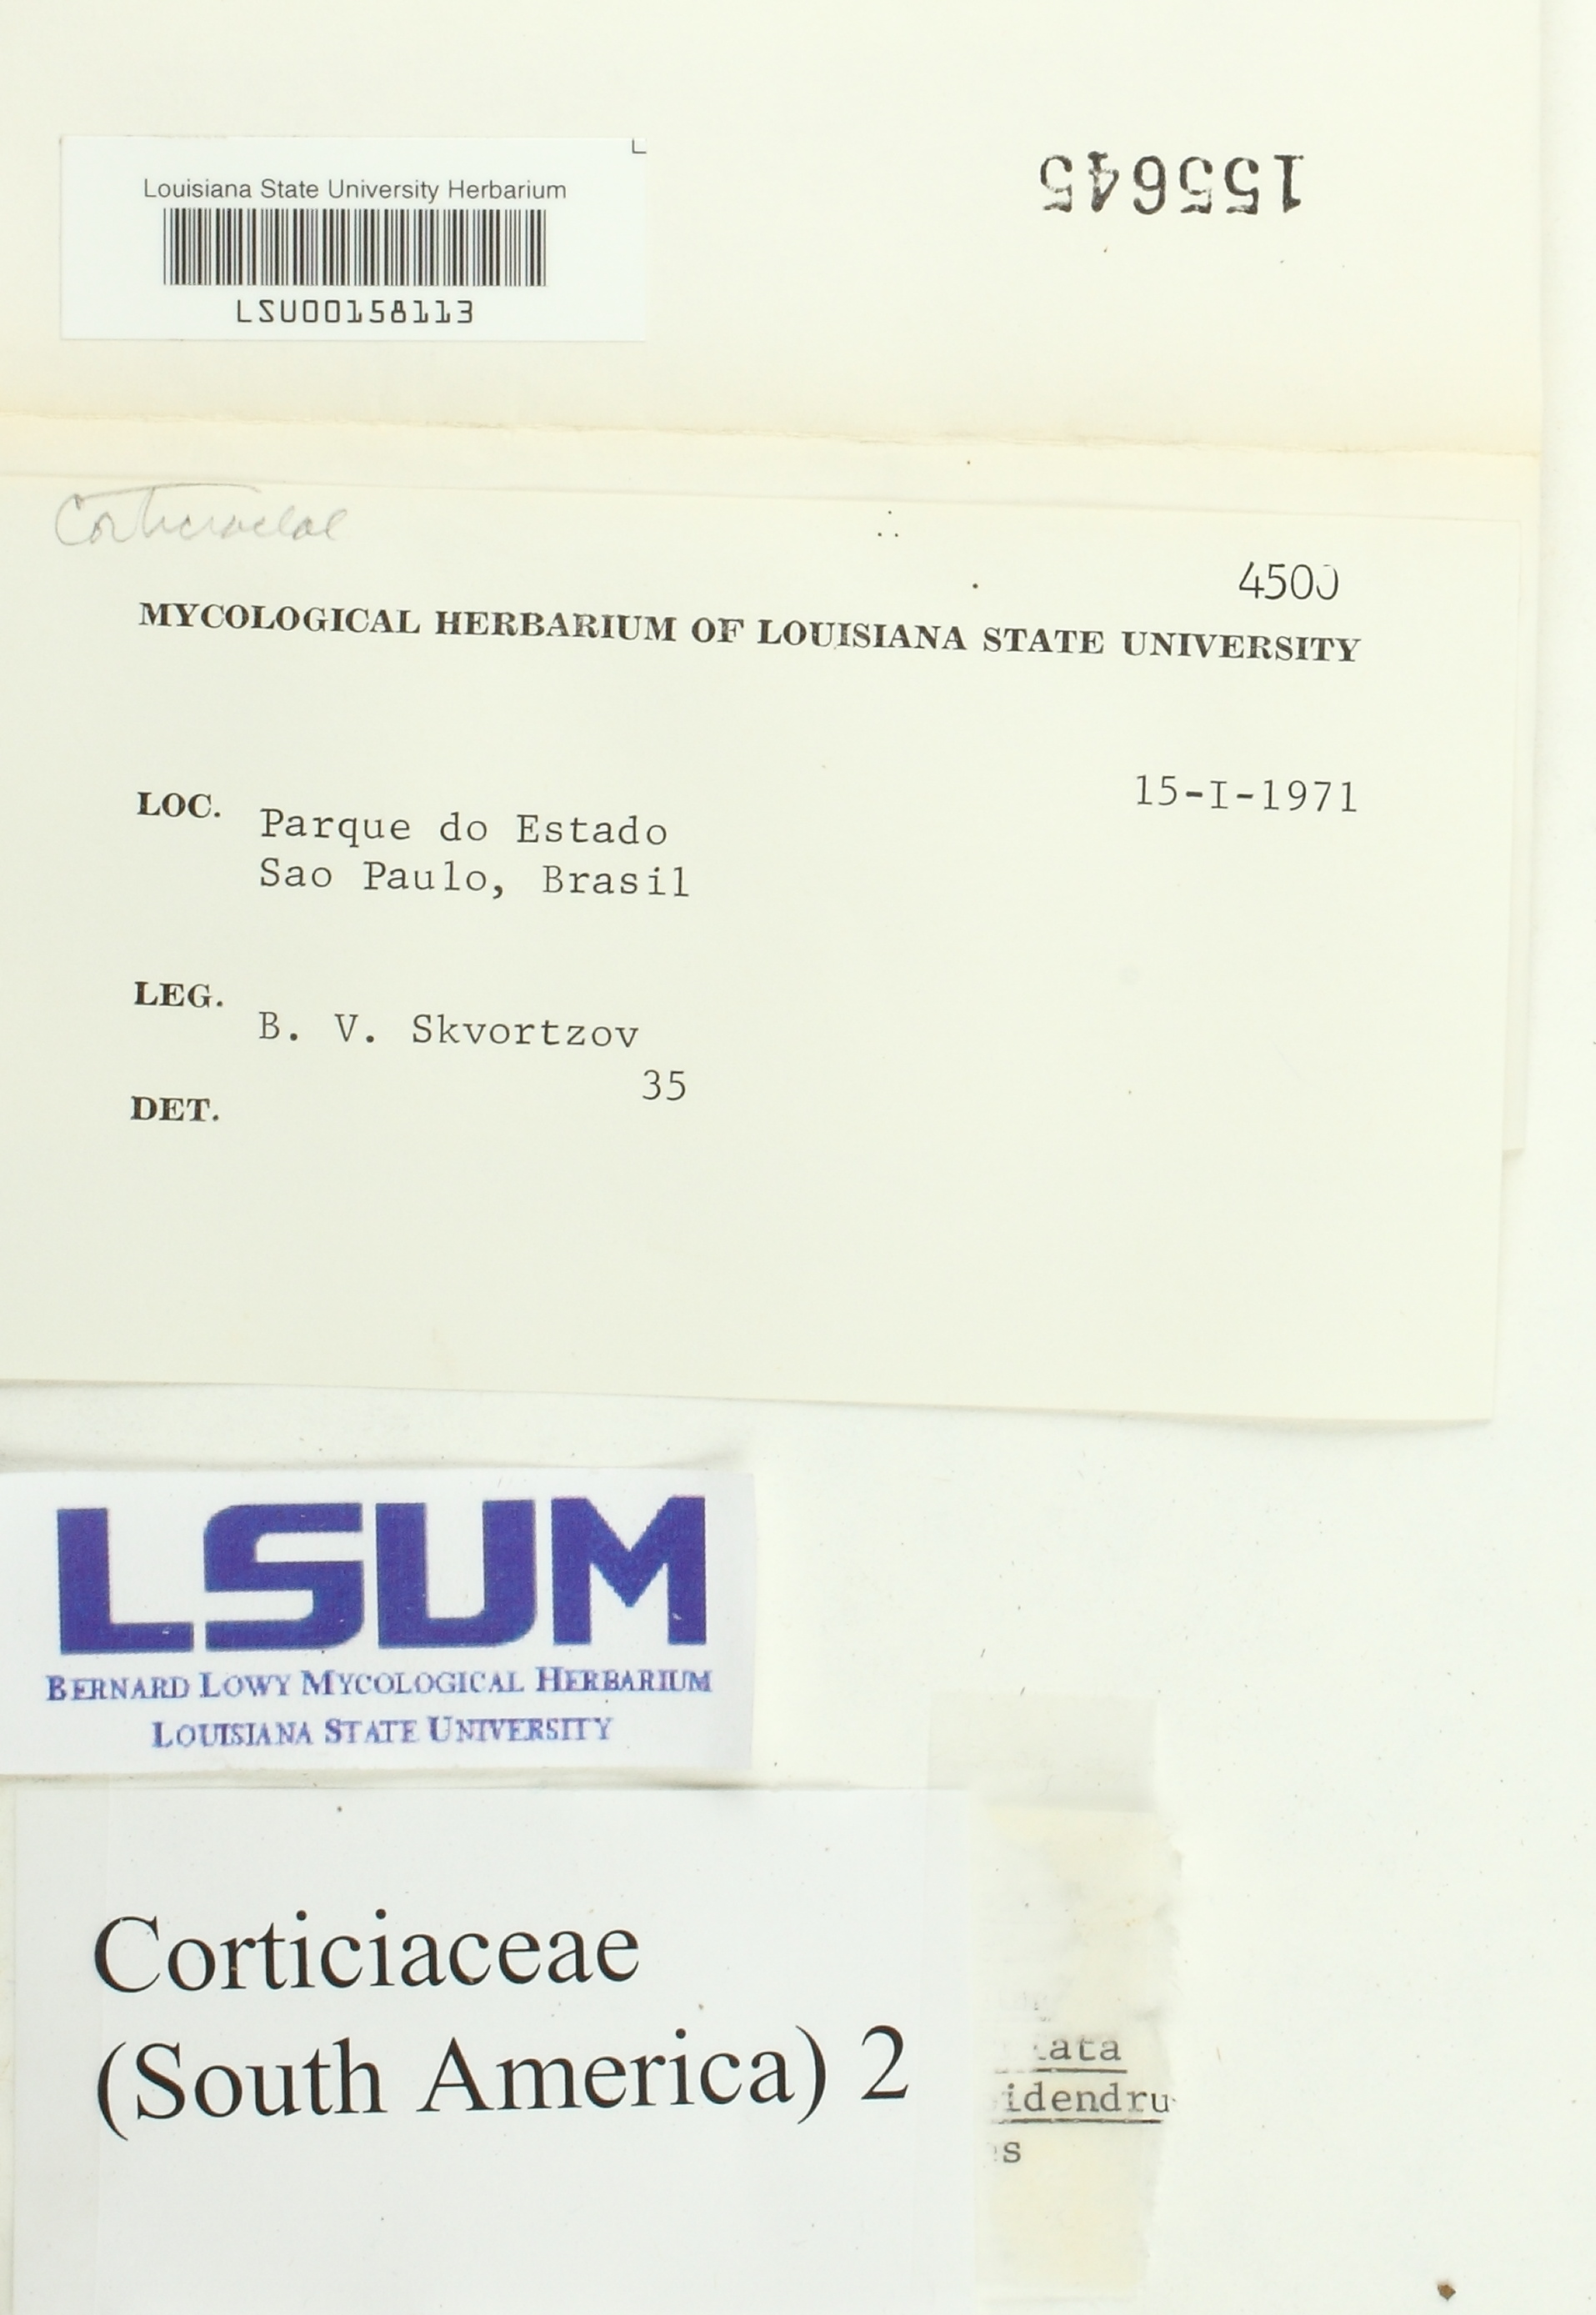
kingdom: Fungi
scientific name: Fungi
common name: Fungi
